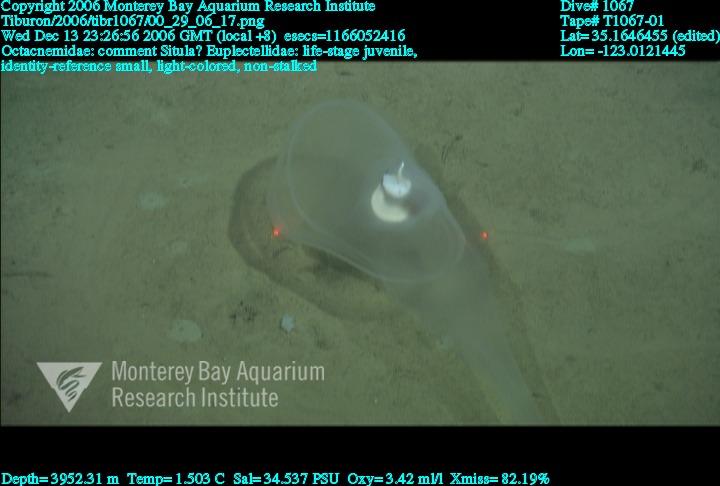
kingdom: Animalia
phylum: Porifera
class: Hexactinellida
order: Lyssacinosida
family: Euplectellidae
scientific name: Euplectellidae
